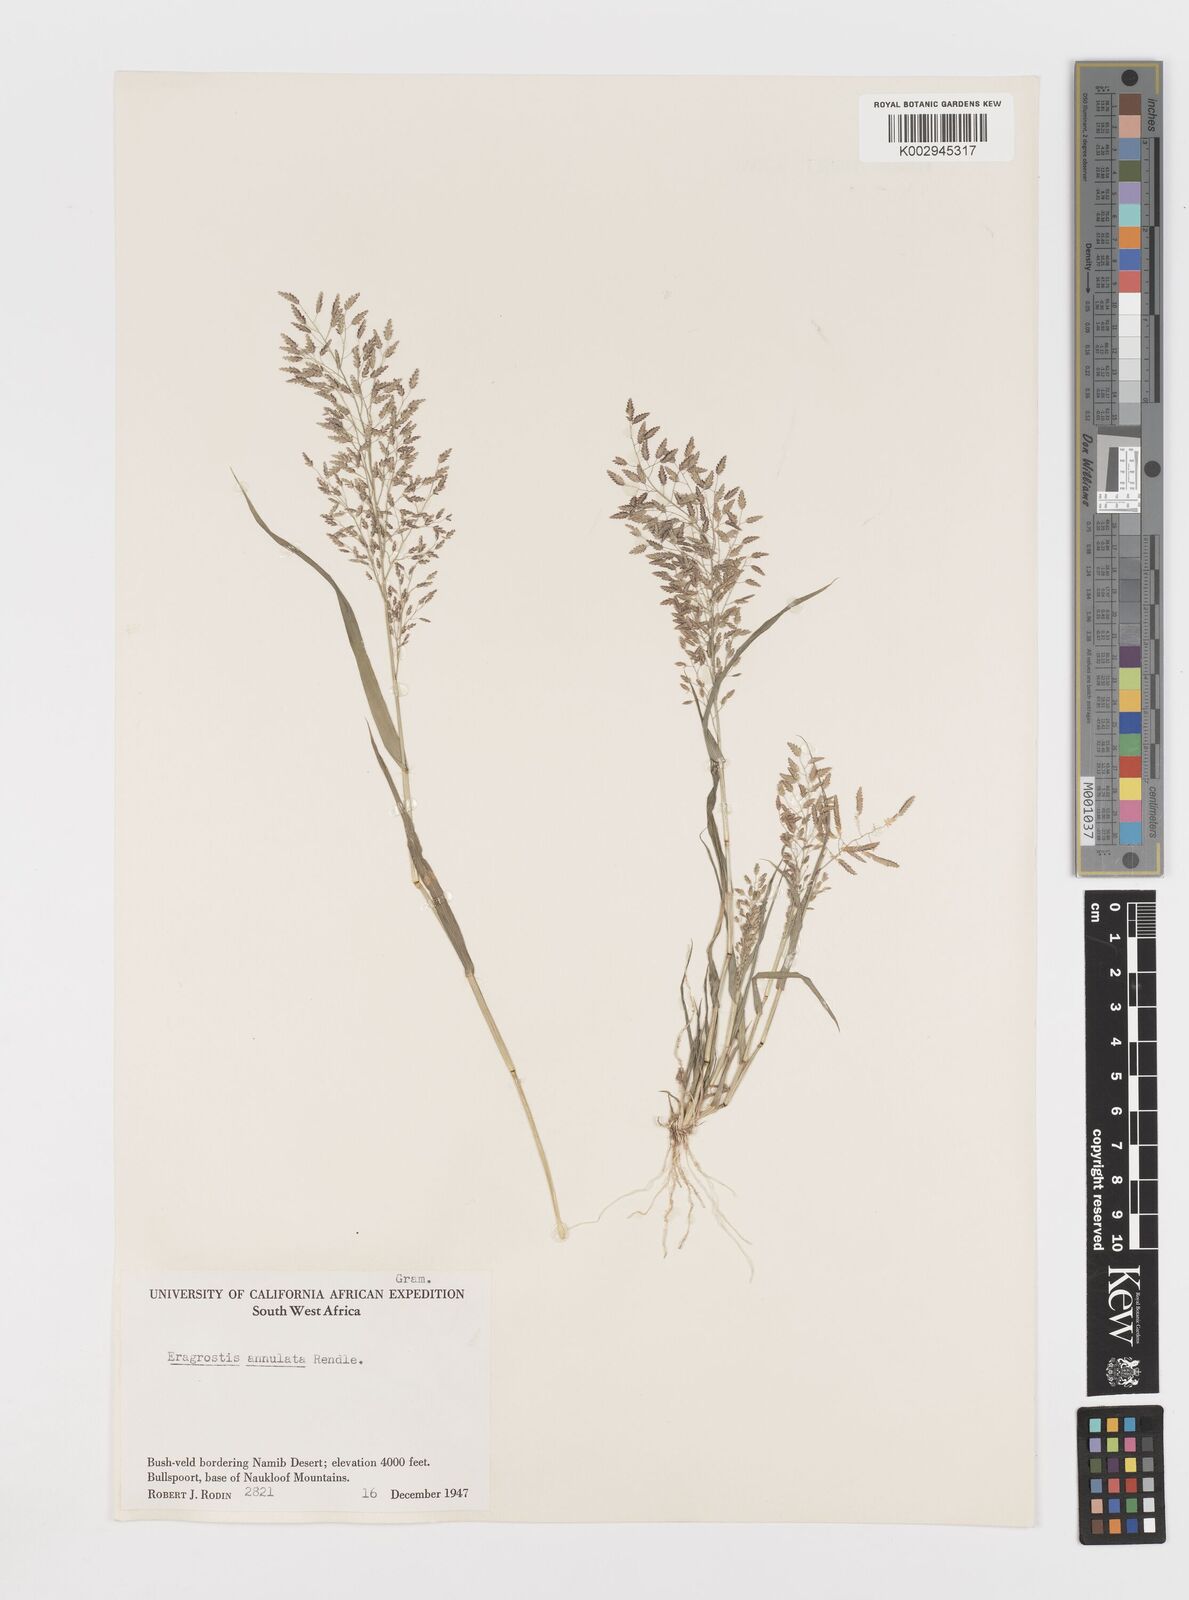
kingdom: Plantae
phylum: Tracheophyta
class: Liliopsida
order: Poales
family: Poaceae
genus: Eragrostis
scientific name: Eragrostis annulata
